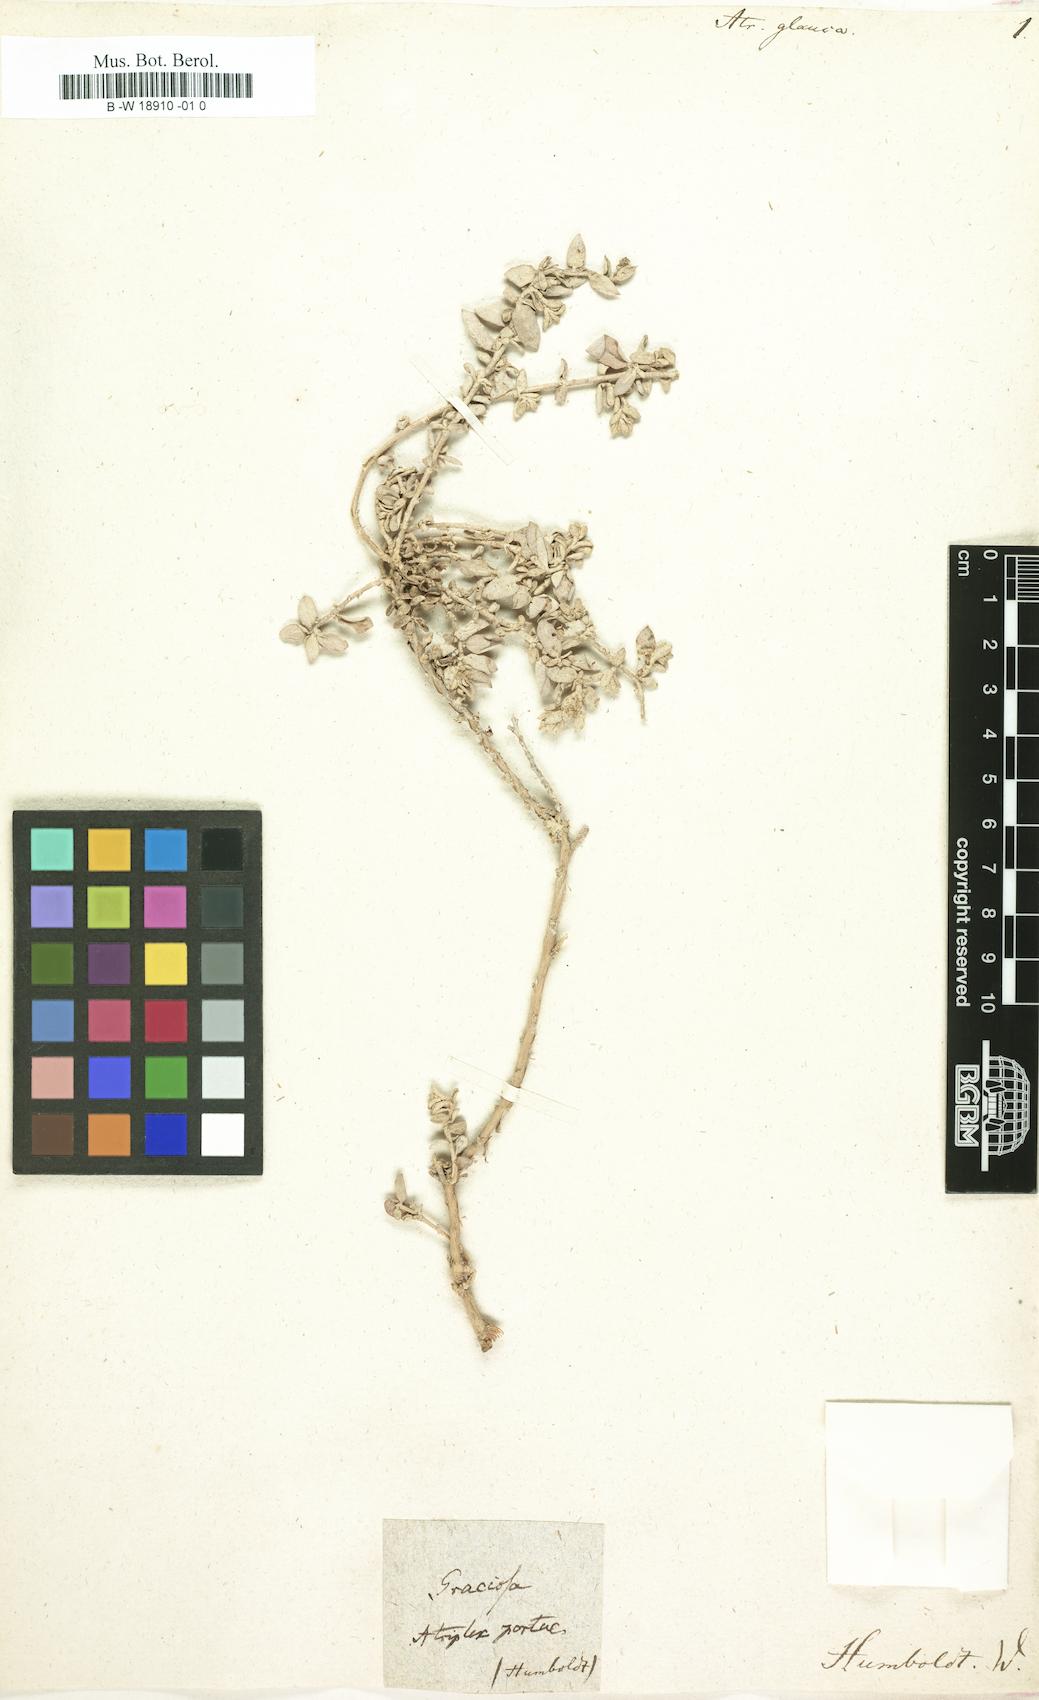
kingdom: Plantae
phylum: Tracheophyta
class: Magnoliopsida
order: Caryophyllales
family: Amaranthaceae
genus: Atriplex
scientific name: Atriplex glauca
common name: Waxy saltbush
